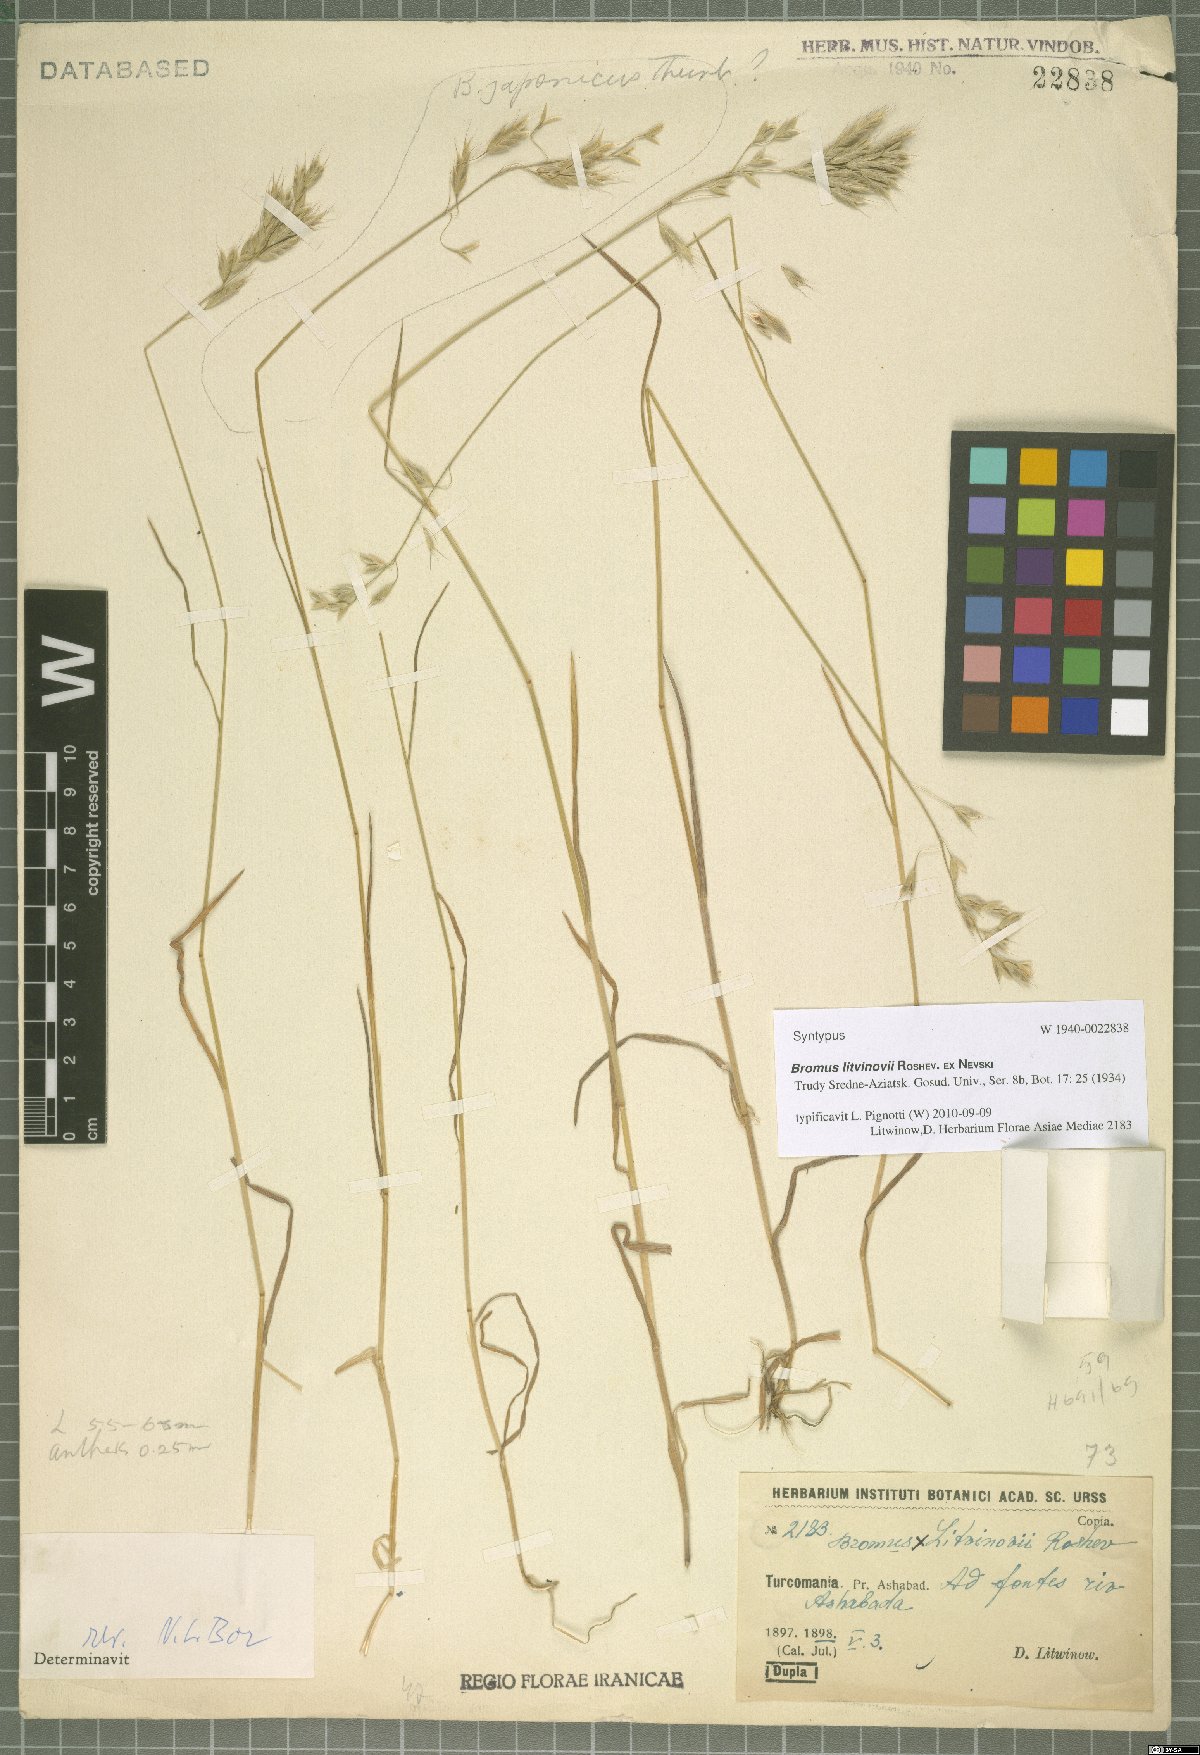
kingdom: Plantae
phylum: Tracheophyta
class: Liliopsida
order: Poales
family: Poaceae
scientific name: Poaceae
